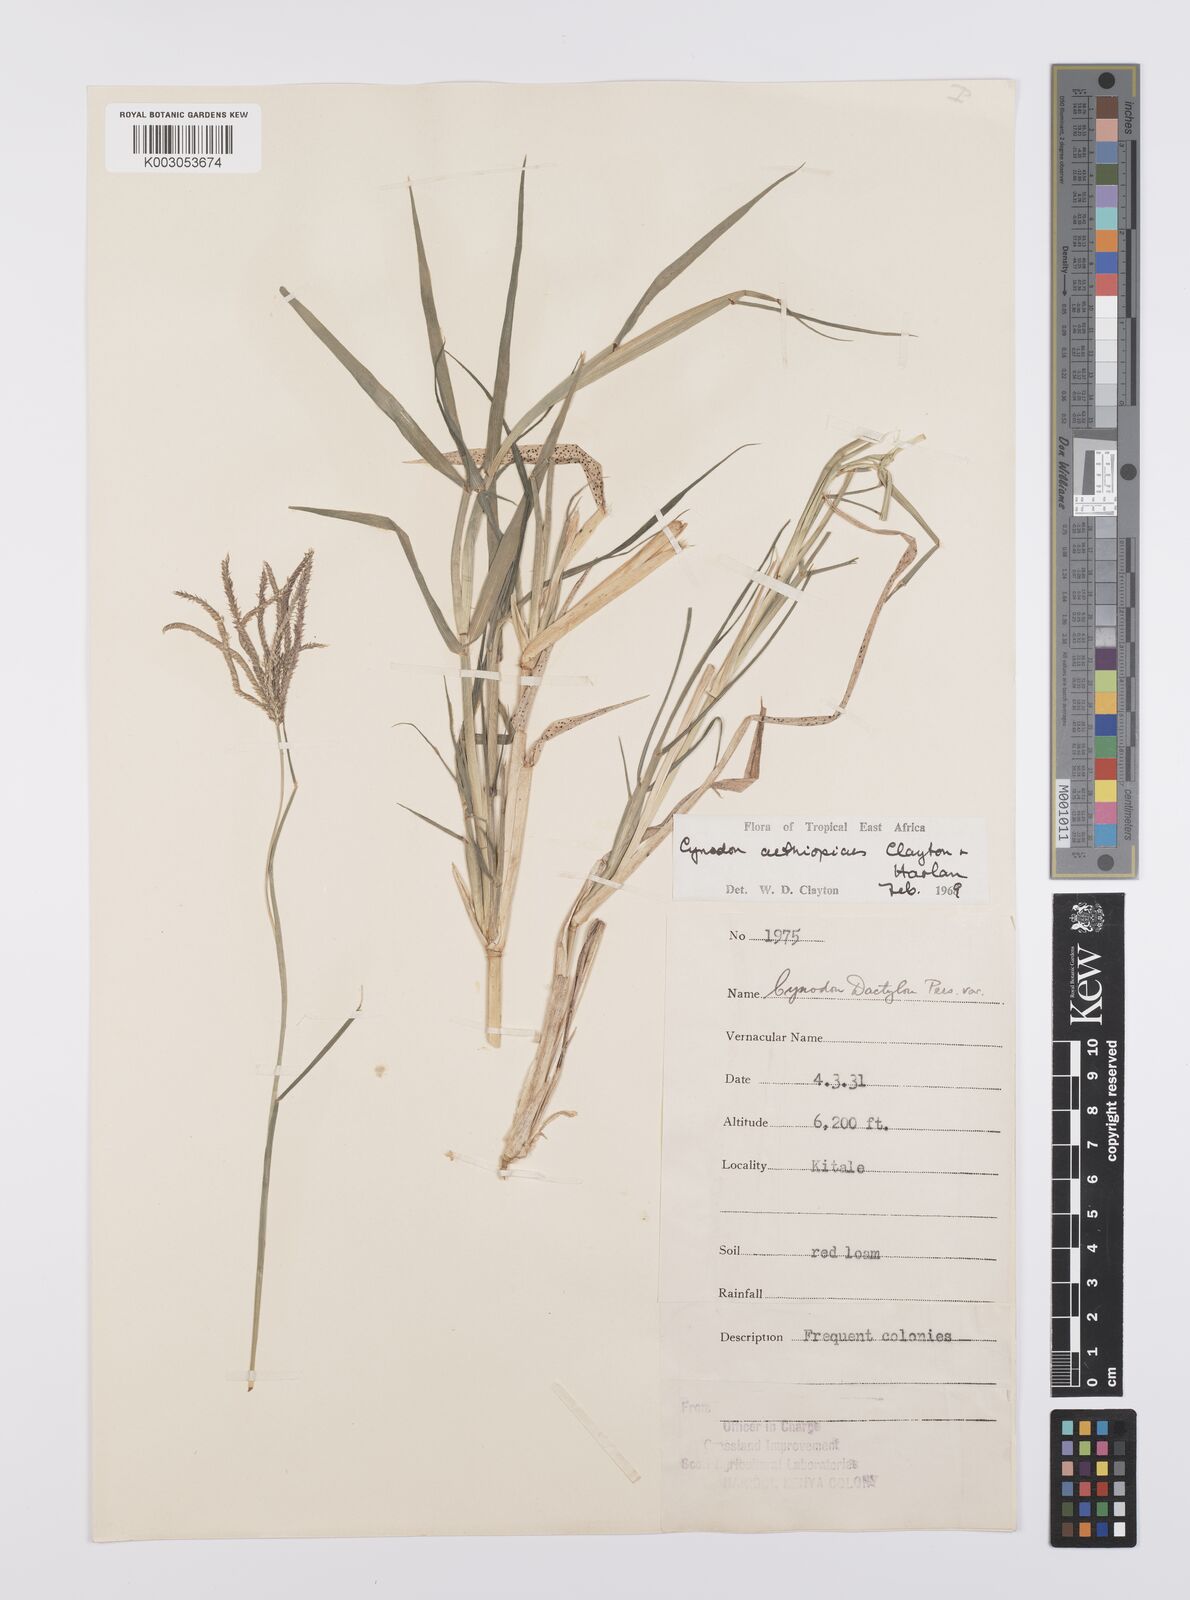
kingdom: Plantae
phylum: Tracheophyta
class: Liliopsida
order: Poales
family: Poaceae
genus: Cynodon
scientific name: Cynodon aethiopicus
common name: Ethiopian dogstooth grass
